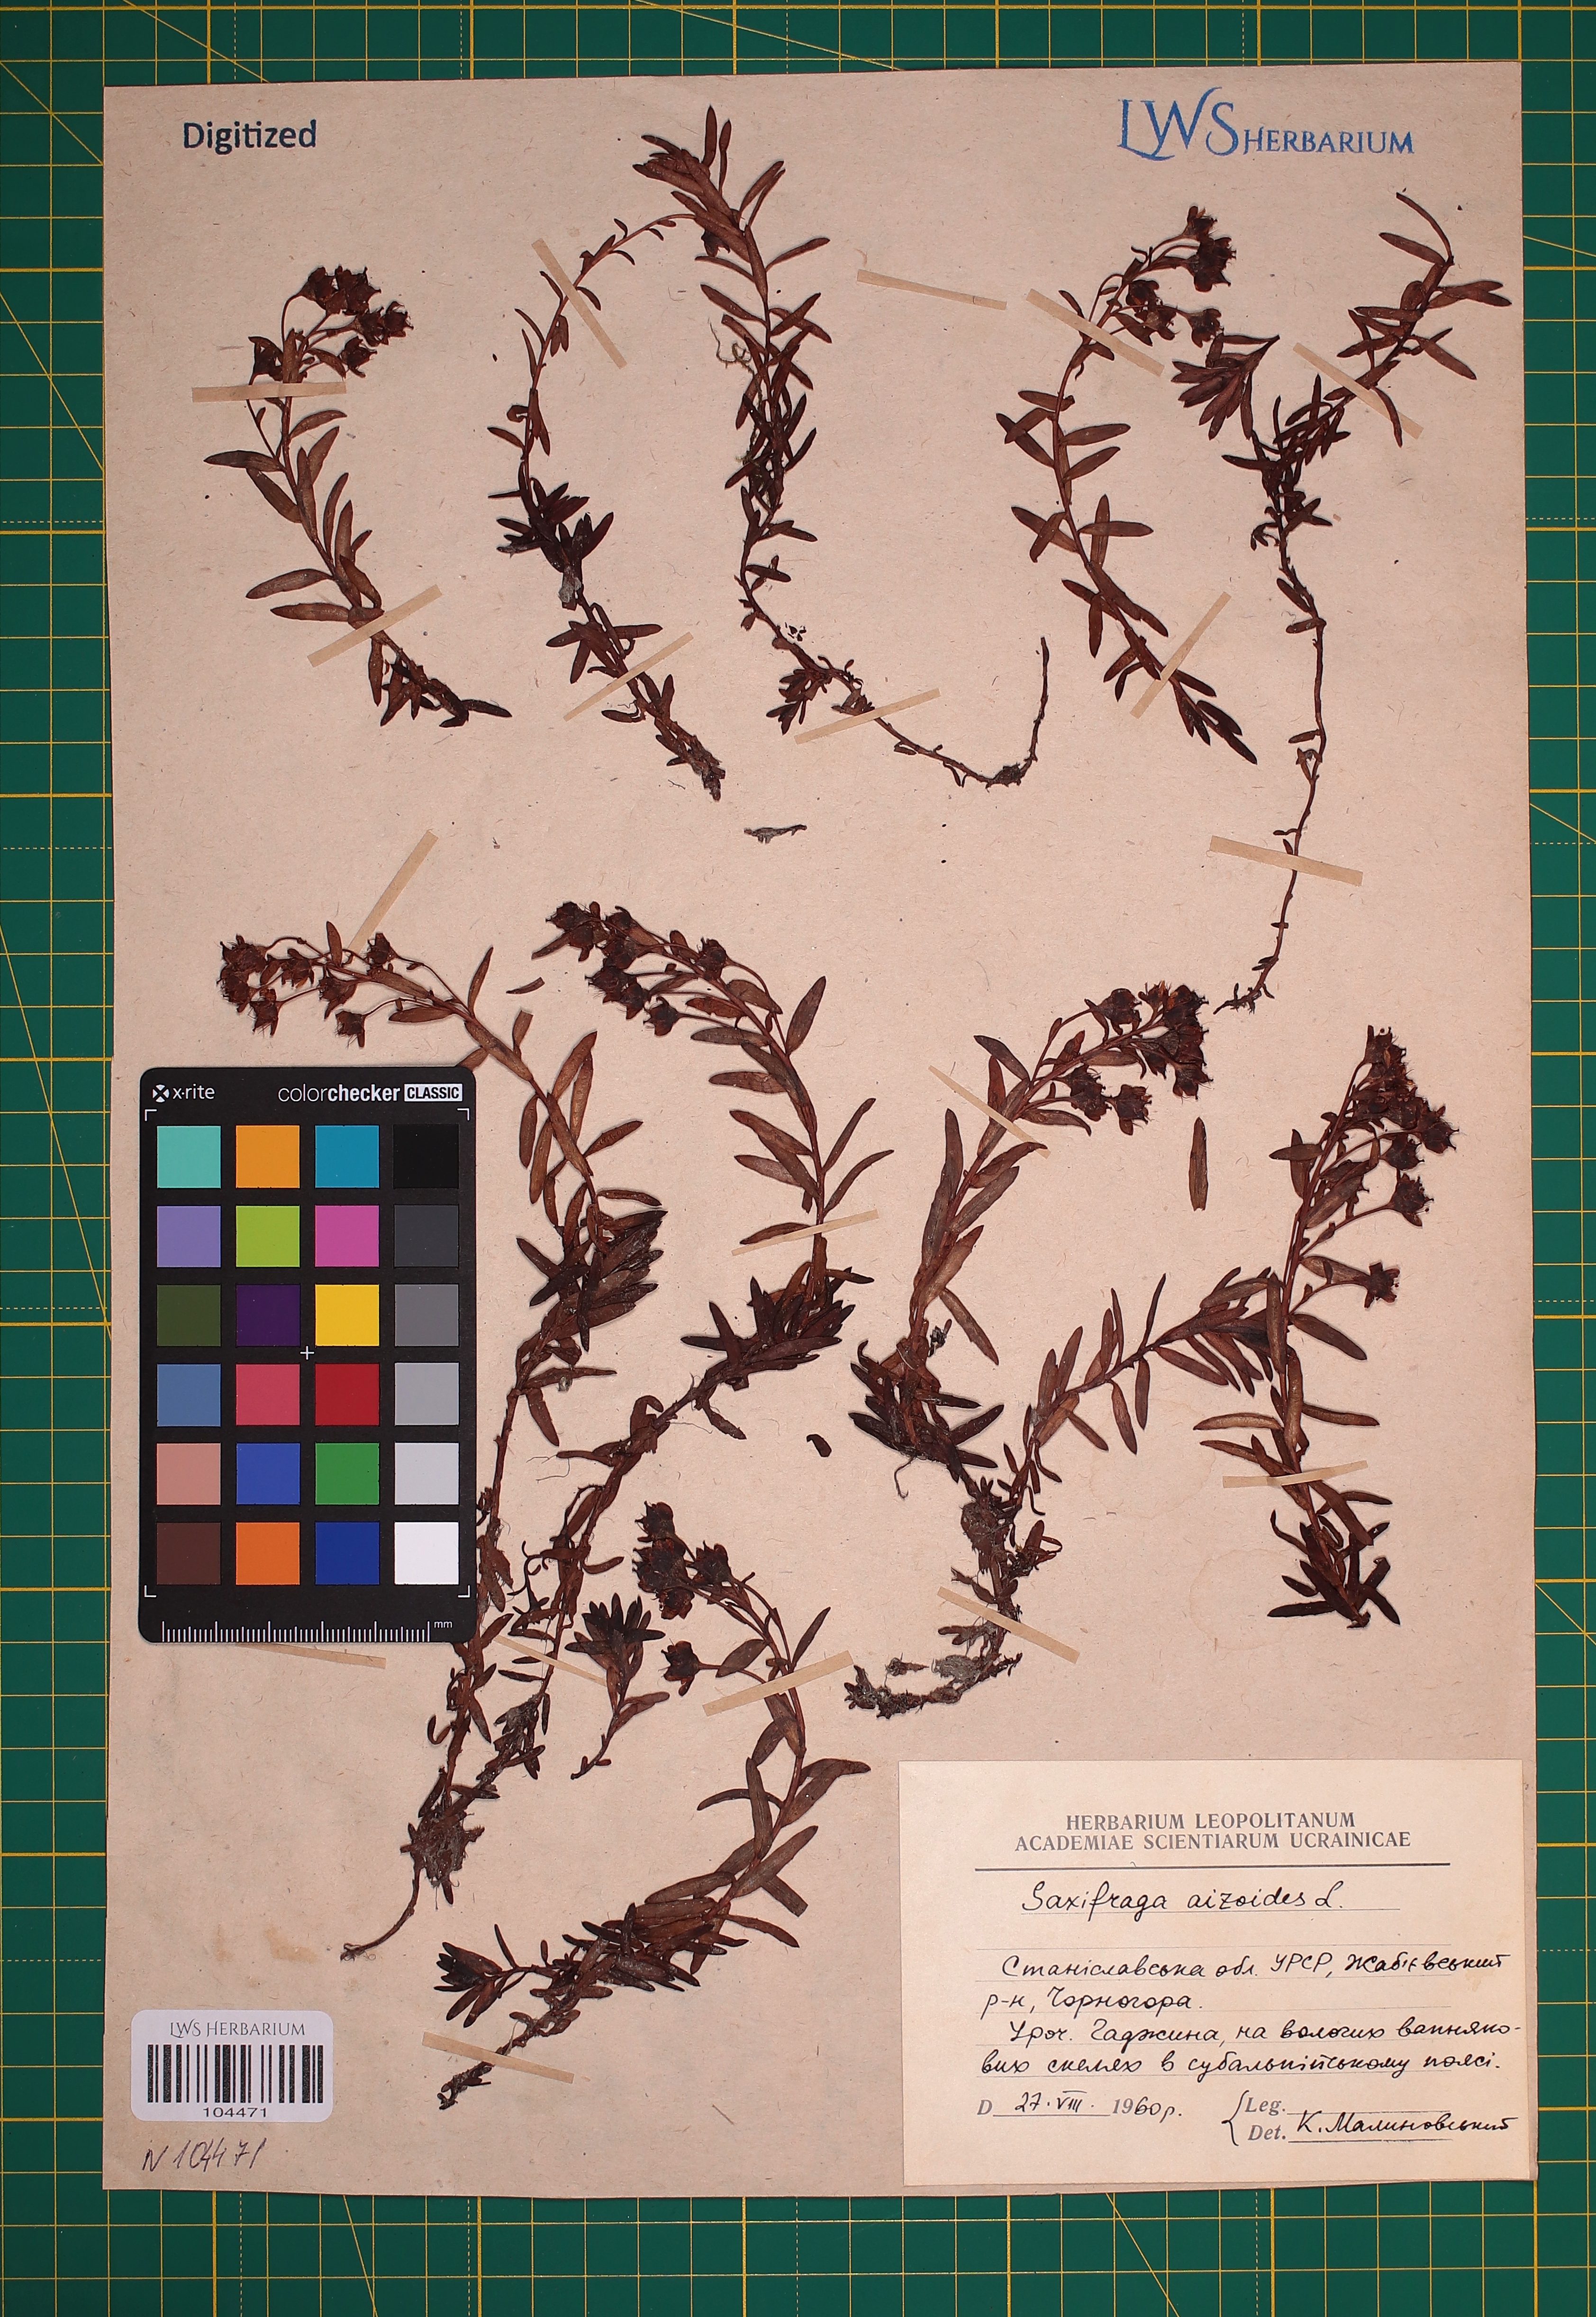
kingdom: Plantae
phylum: Tracheophyta
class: Magnoliopsida
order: Saxifragales
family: Saxifragaceae
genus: Saxifraga
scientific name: Saxifraga aizoides
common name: Yellow mountain saxifrage
